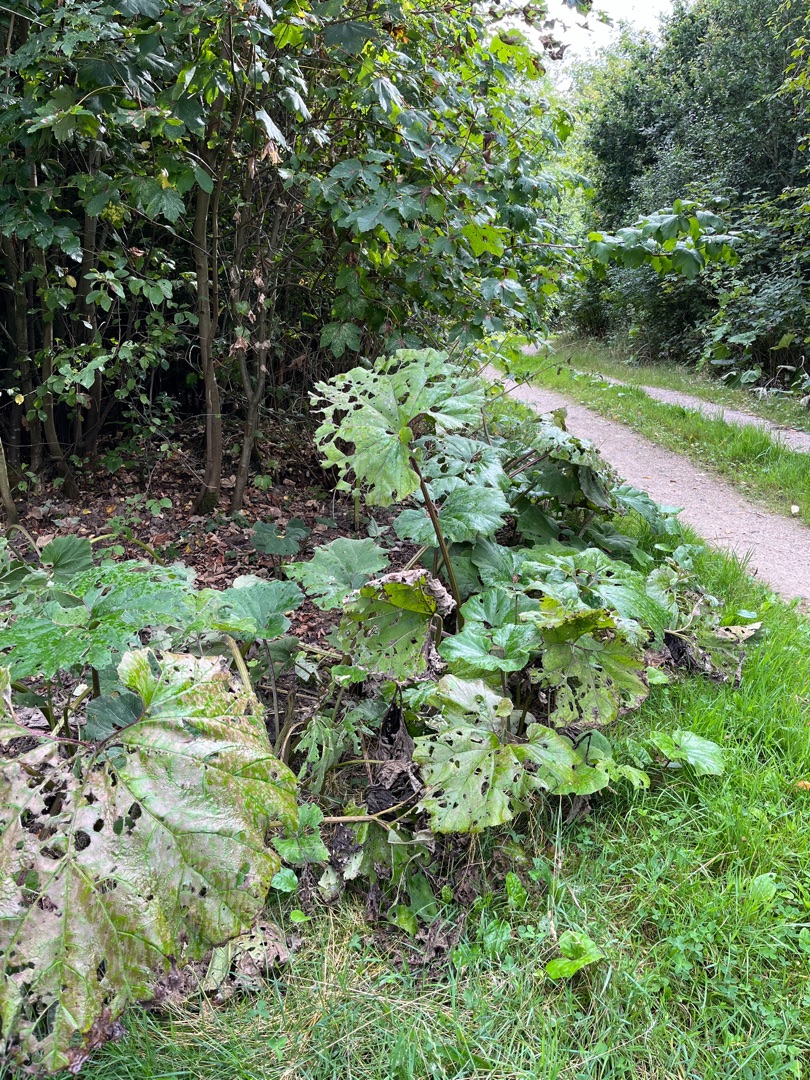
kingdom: Plantae
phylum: Tracheophyta
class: Magnoliopsida
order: Asterales
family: Asteraceae
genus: Petasites
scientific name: Petasites hybridus
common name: Rød hestehov
